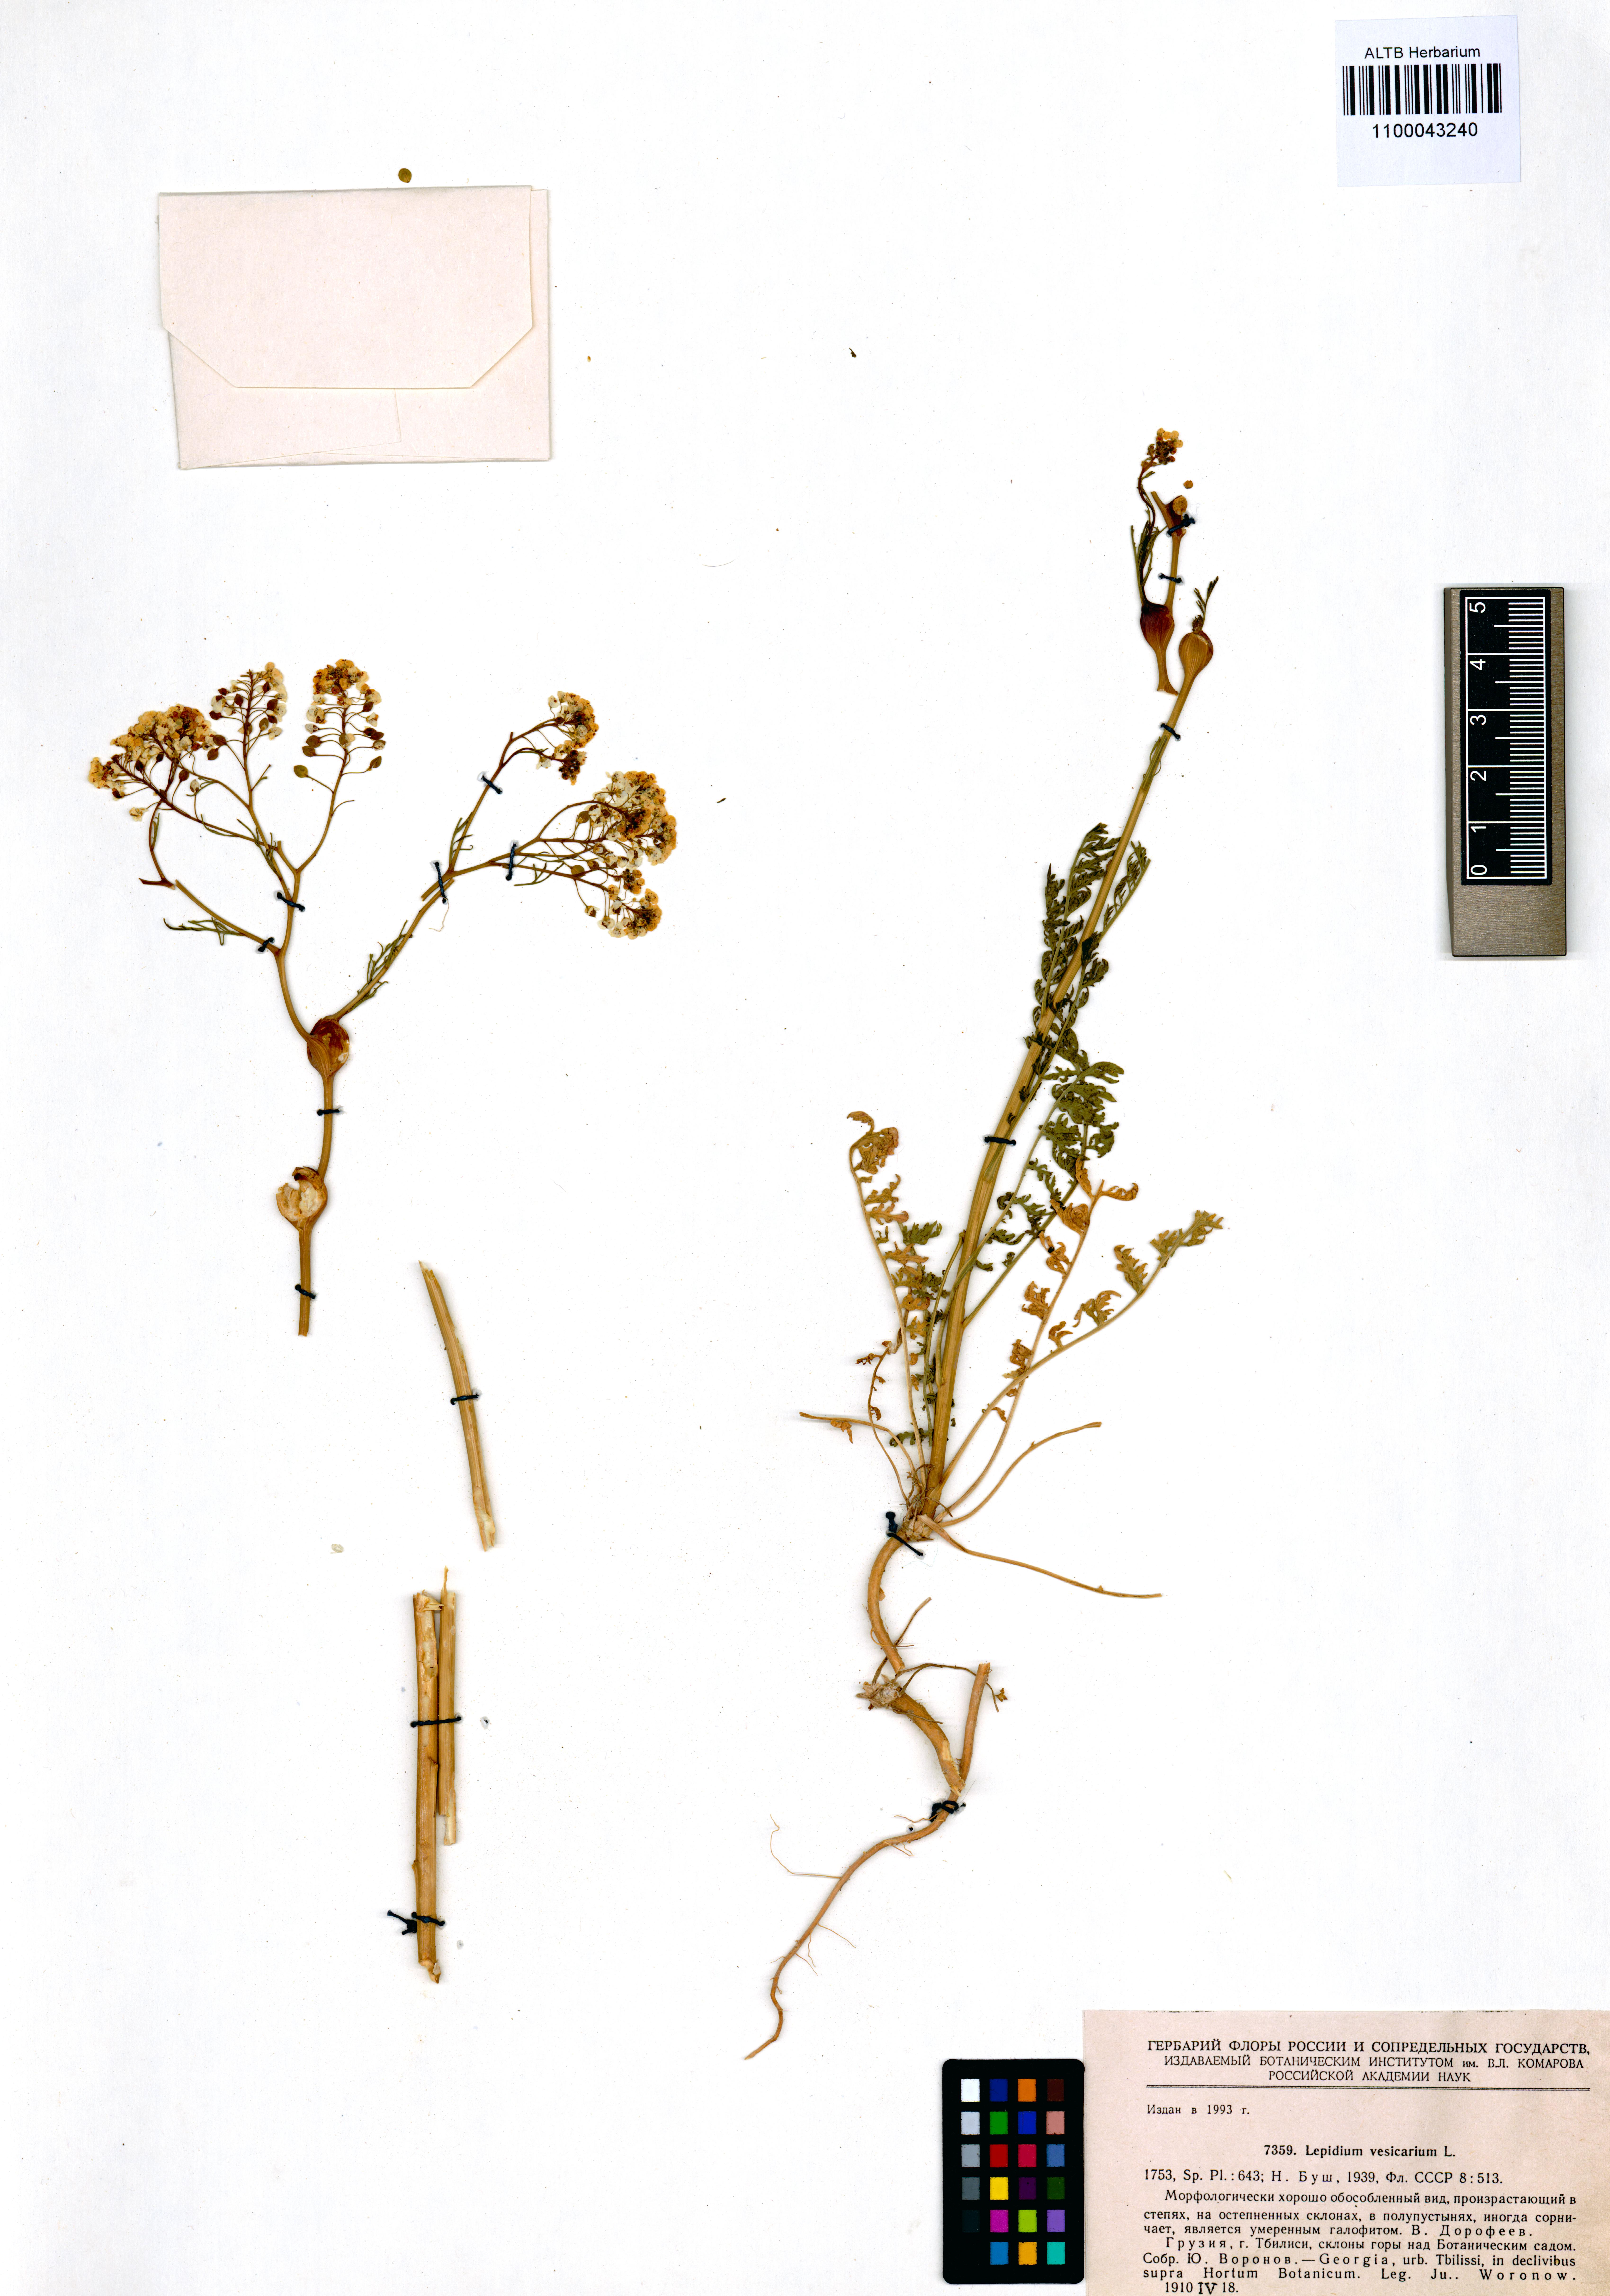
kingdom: Plantae
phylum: Tracheophyta
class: Magnoliopsida
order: Brassicales
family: Brassicaceae
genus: Lepidium
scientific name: Lepidium vesicarium
